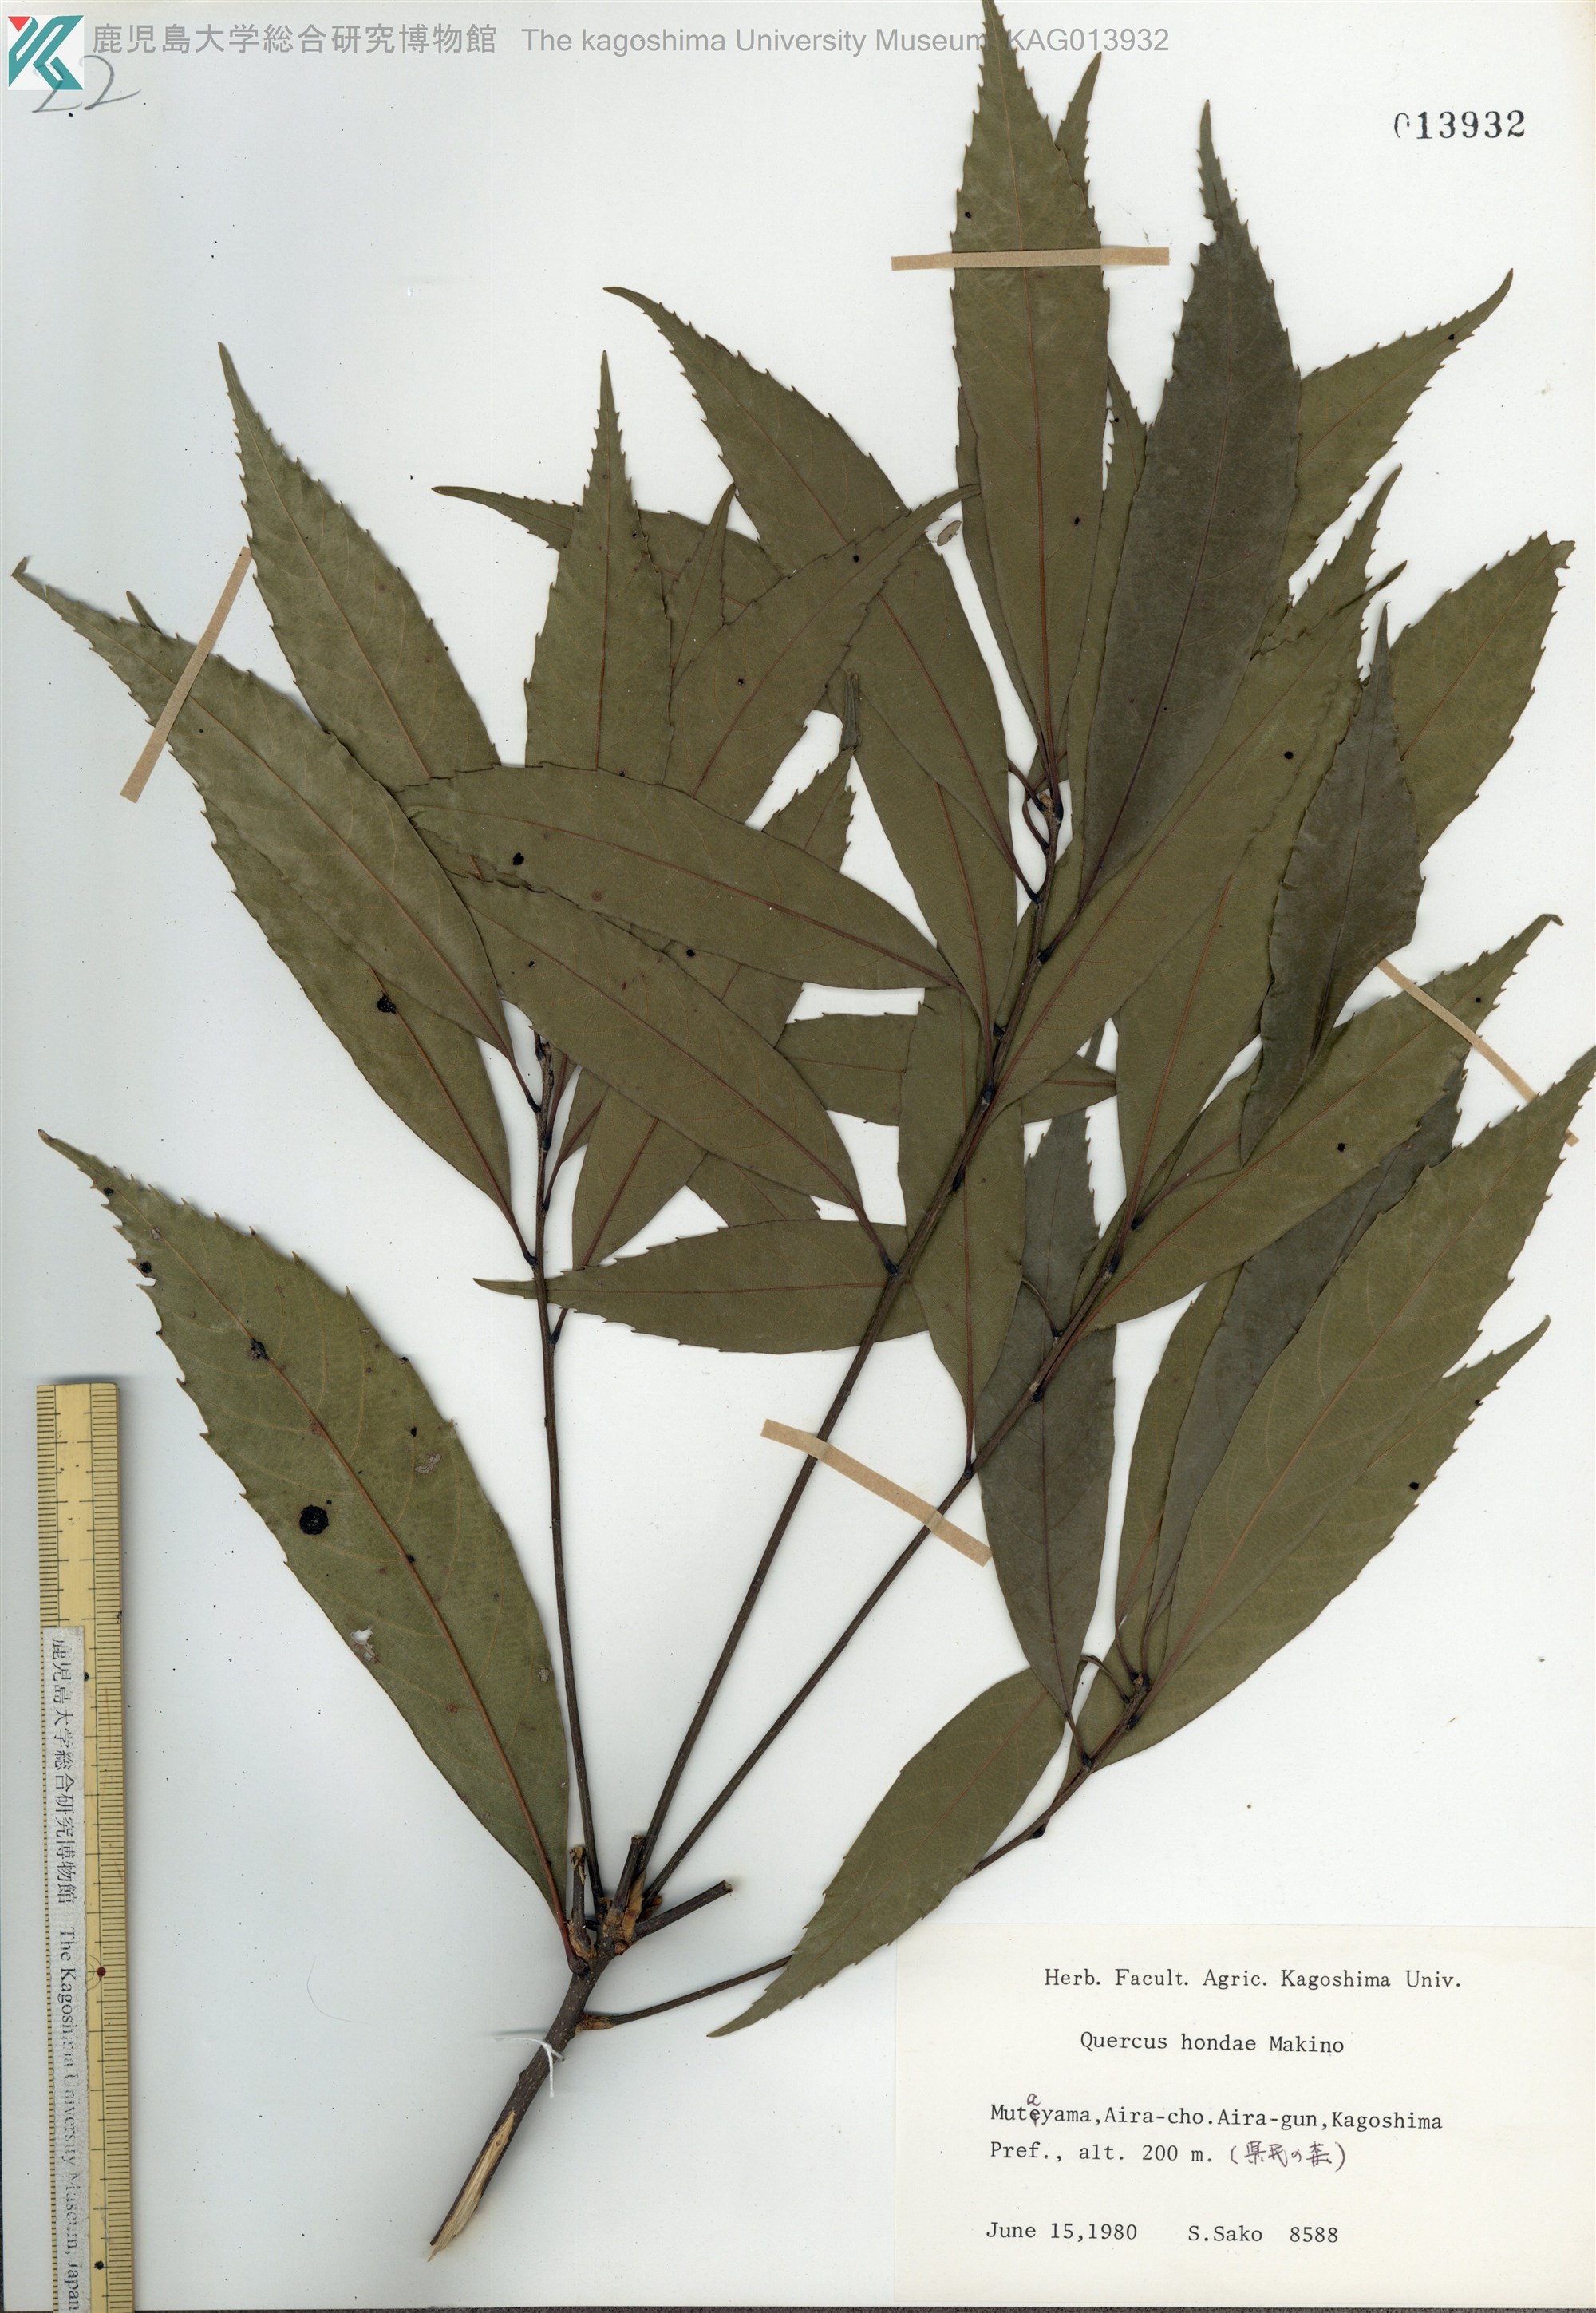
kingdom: Plantae
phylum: Tracheophyta
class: Magnoliopsida
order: Fagales
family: Fagaceae
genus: Quercus
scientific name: Quercus hondae
